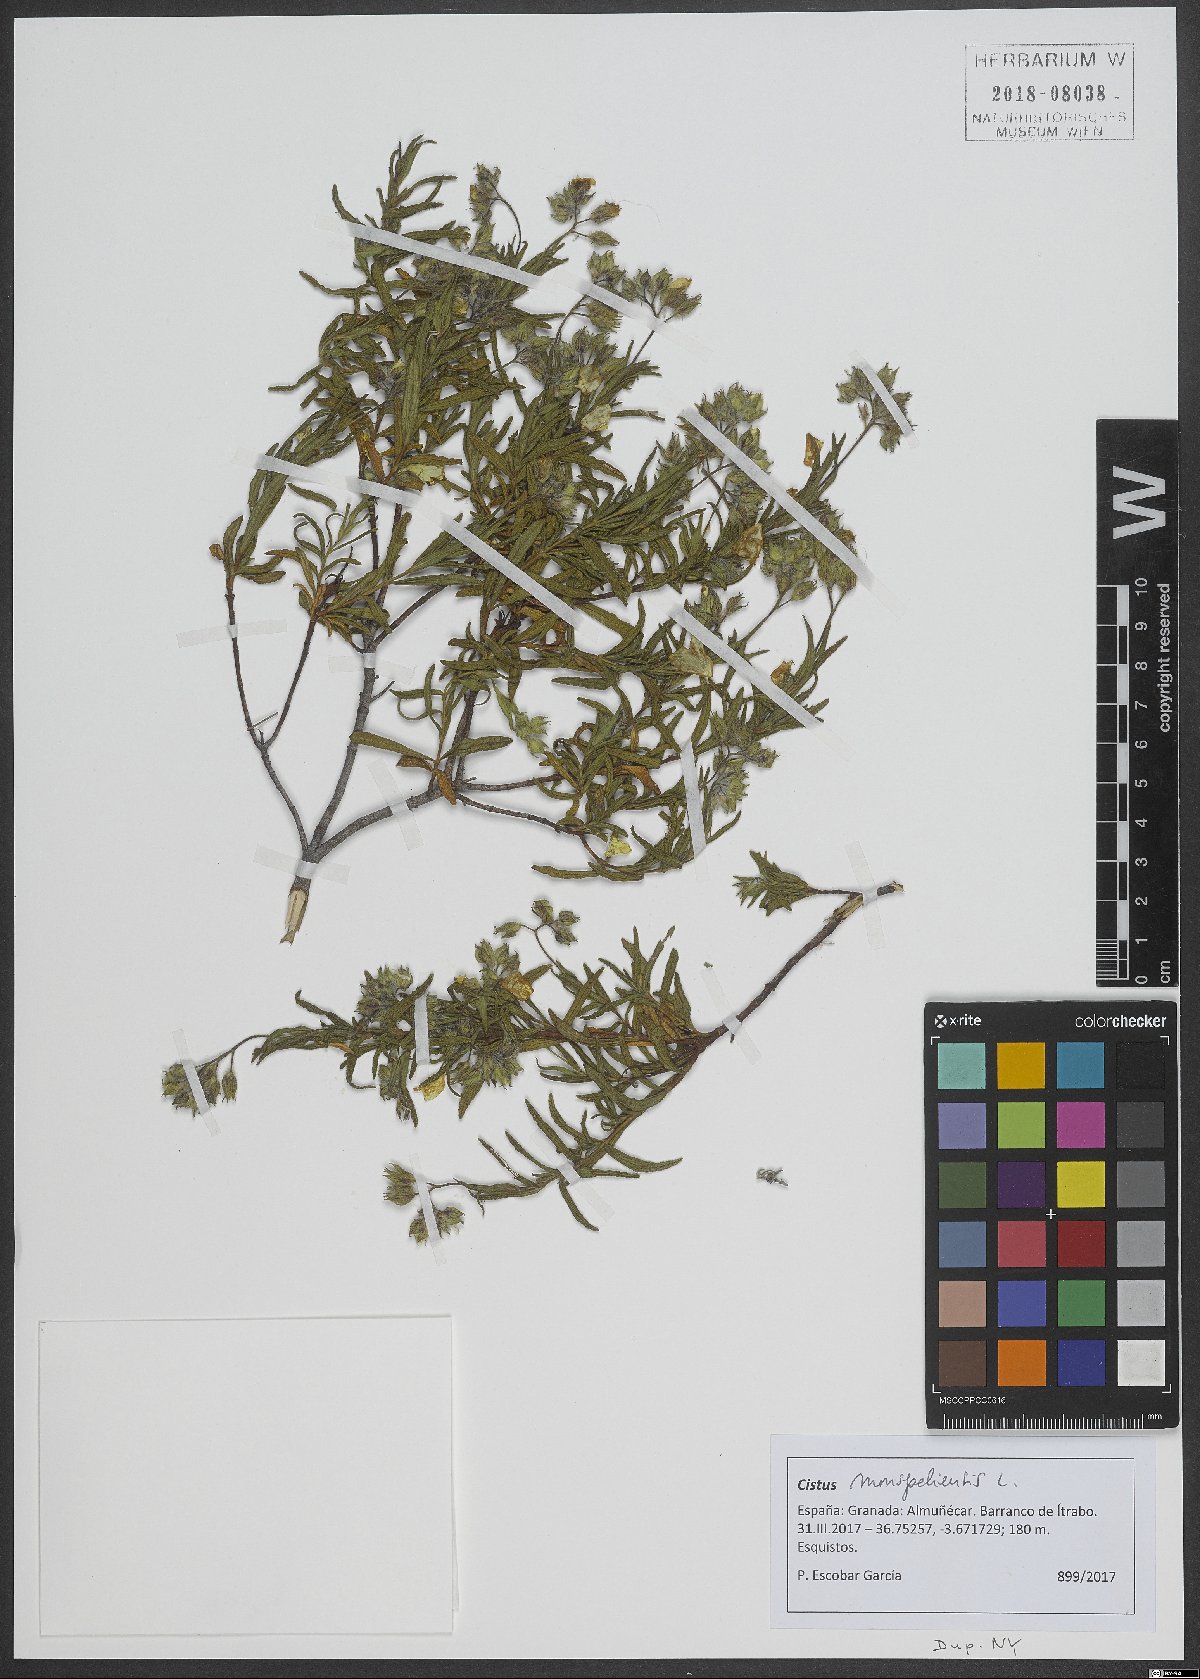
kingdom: Plantae
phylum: Tracheophyta
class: Magnoliopsida
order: Malvales
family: Cistaceae
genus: Cistus
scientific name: Cistus monspeliensis
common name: Montpelier cistus
